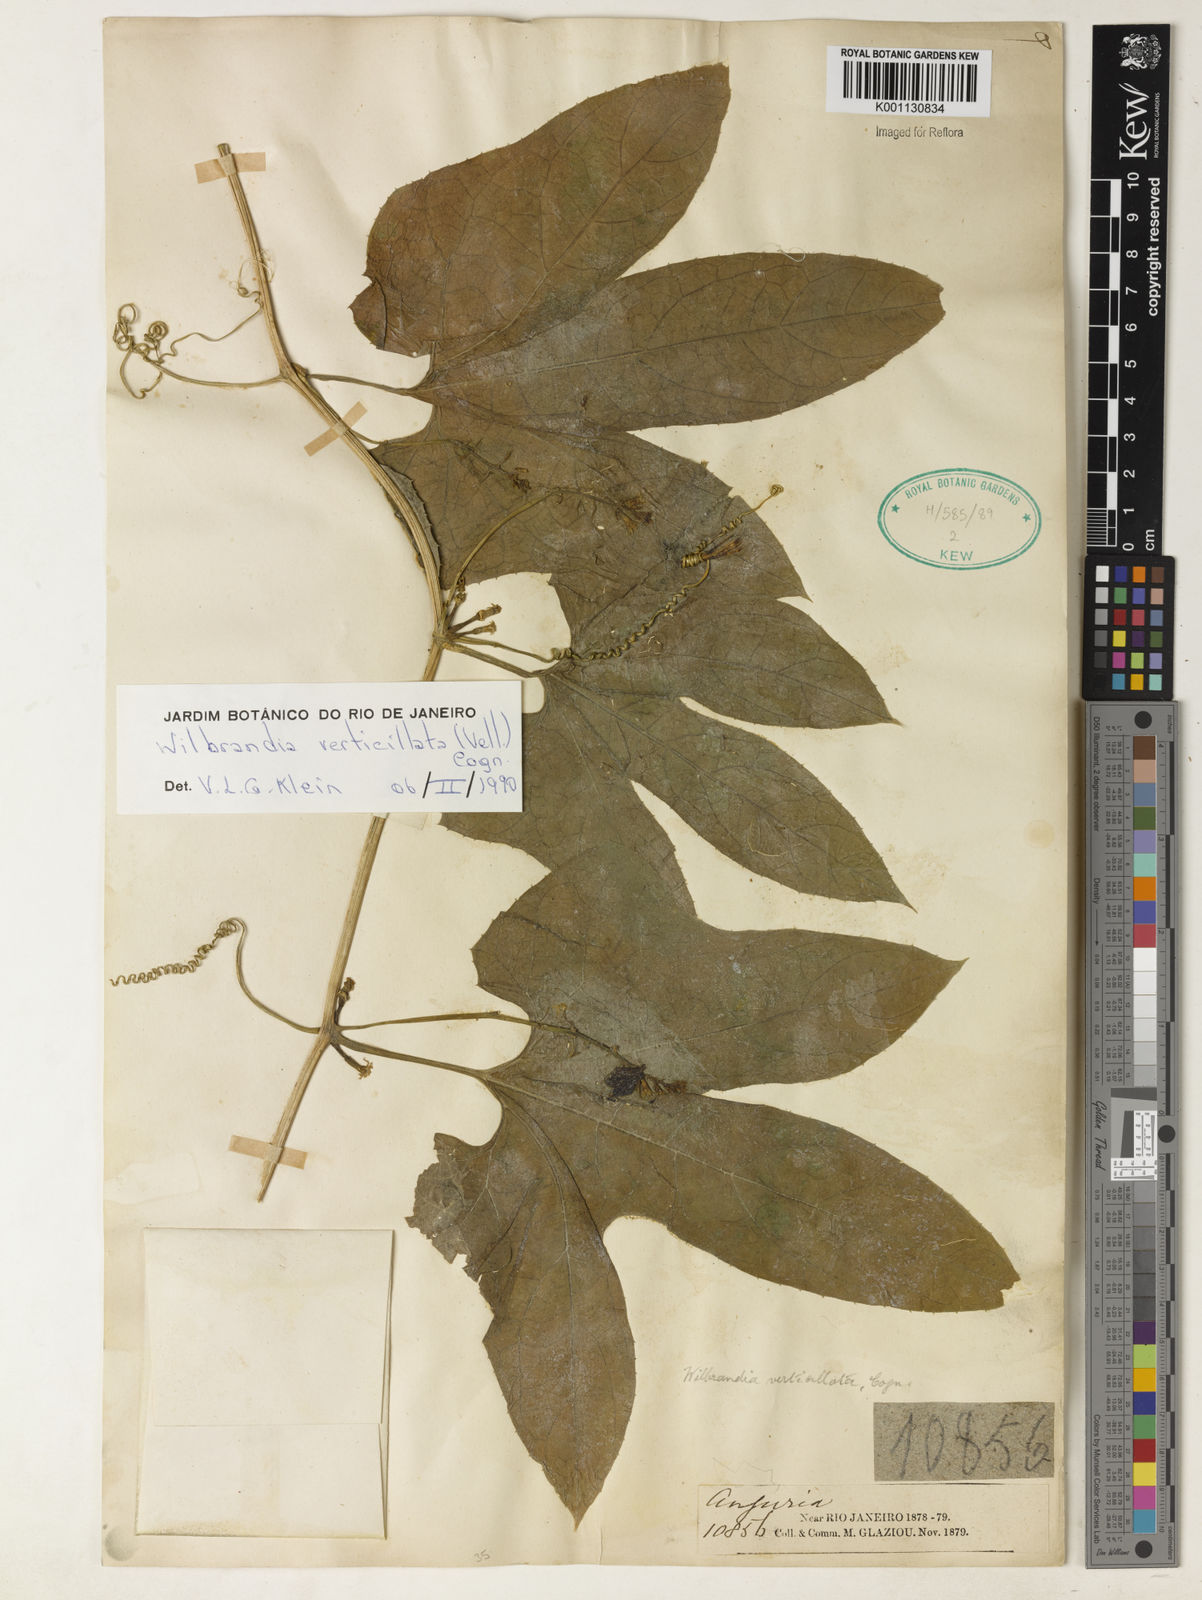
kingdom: Plantae
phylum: Tracheophyta
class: Magnoliopsida
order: Cucurbitales
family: Cucurbitaceae
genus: Wilbrandia
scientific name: Wilbrandia verticillata
